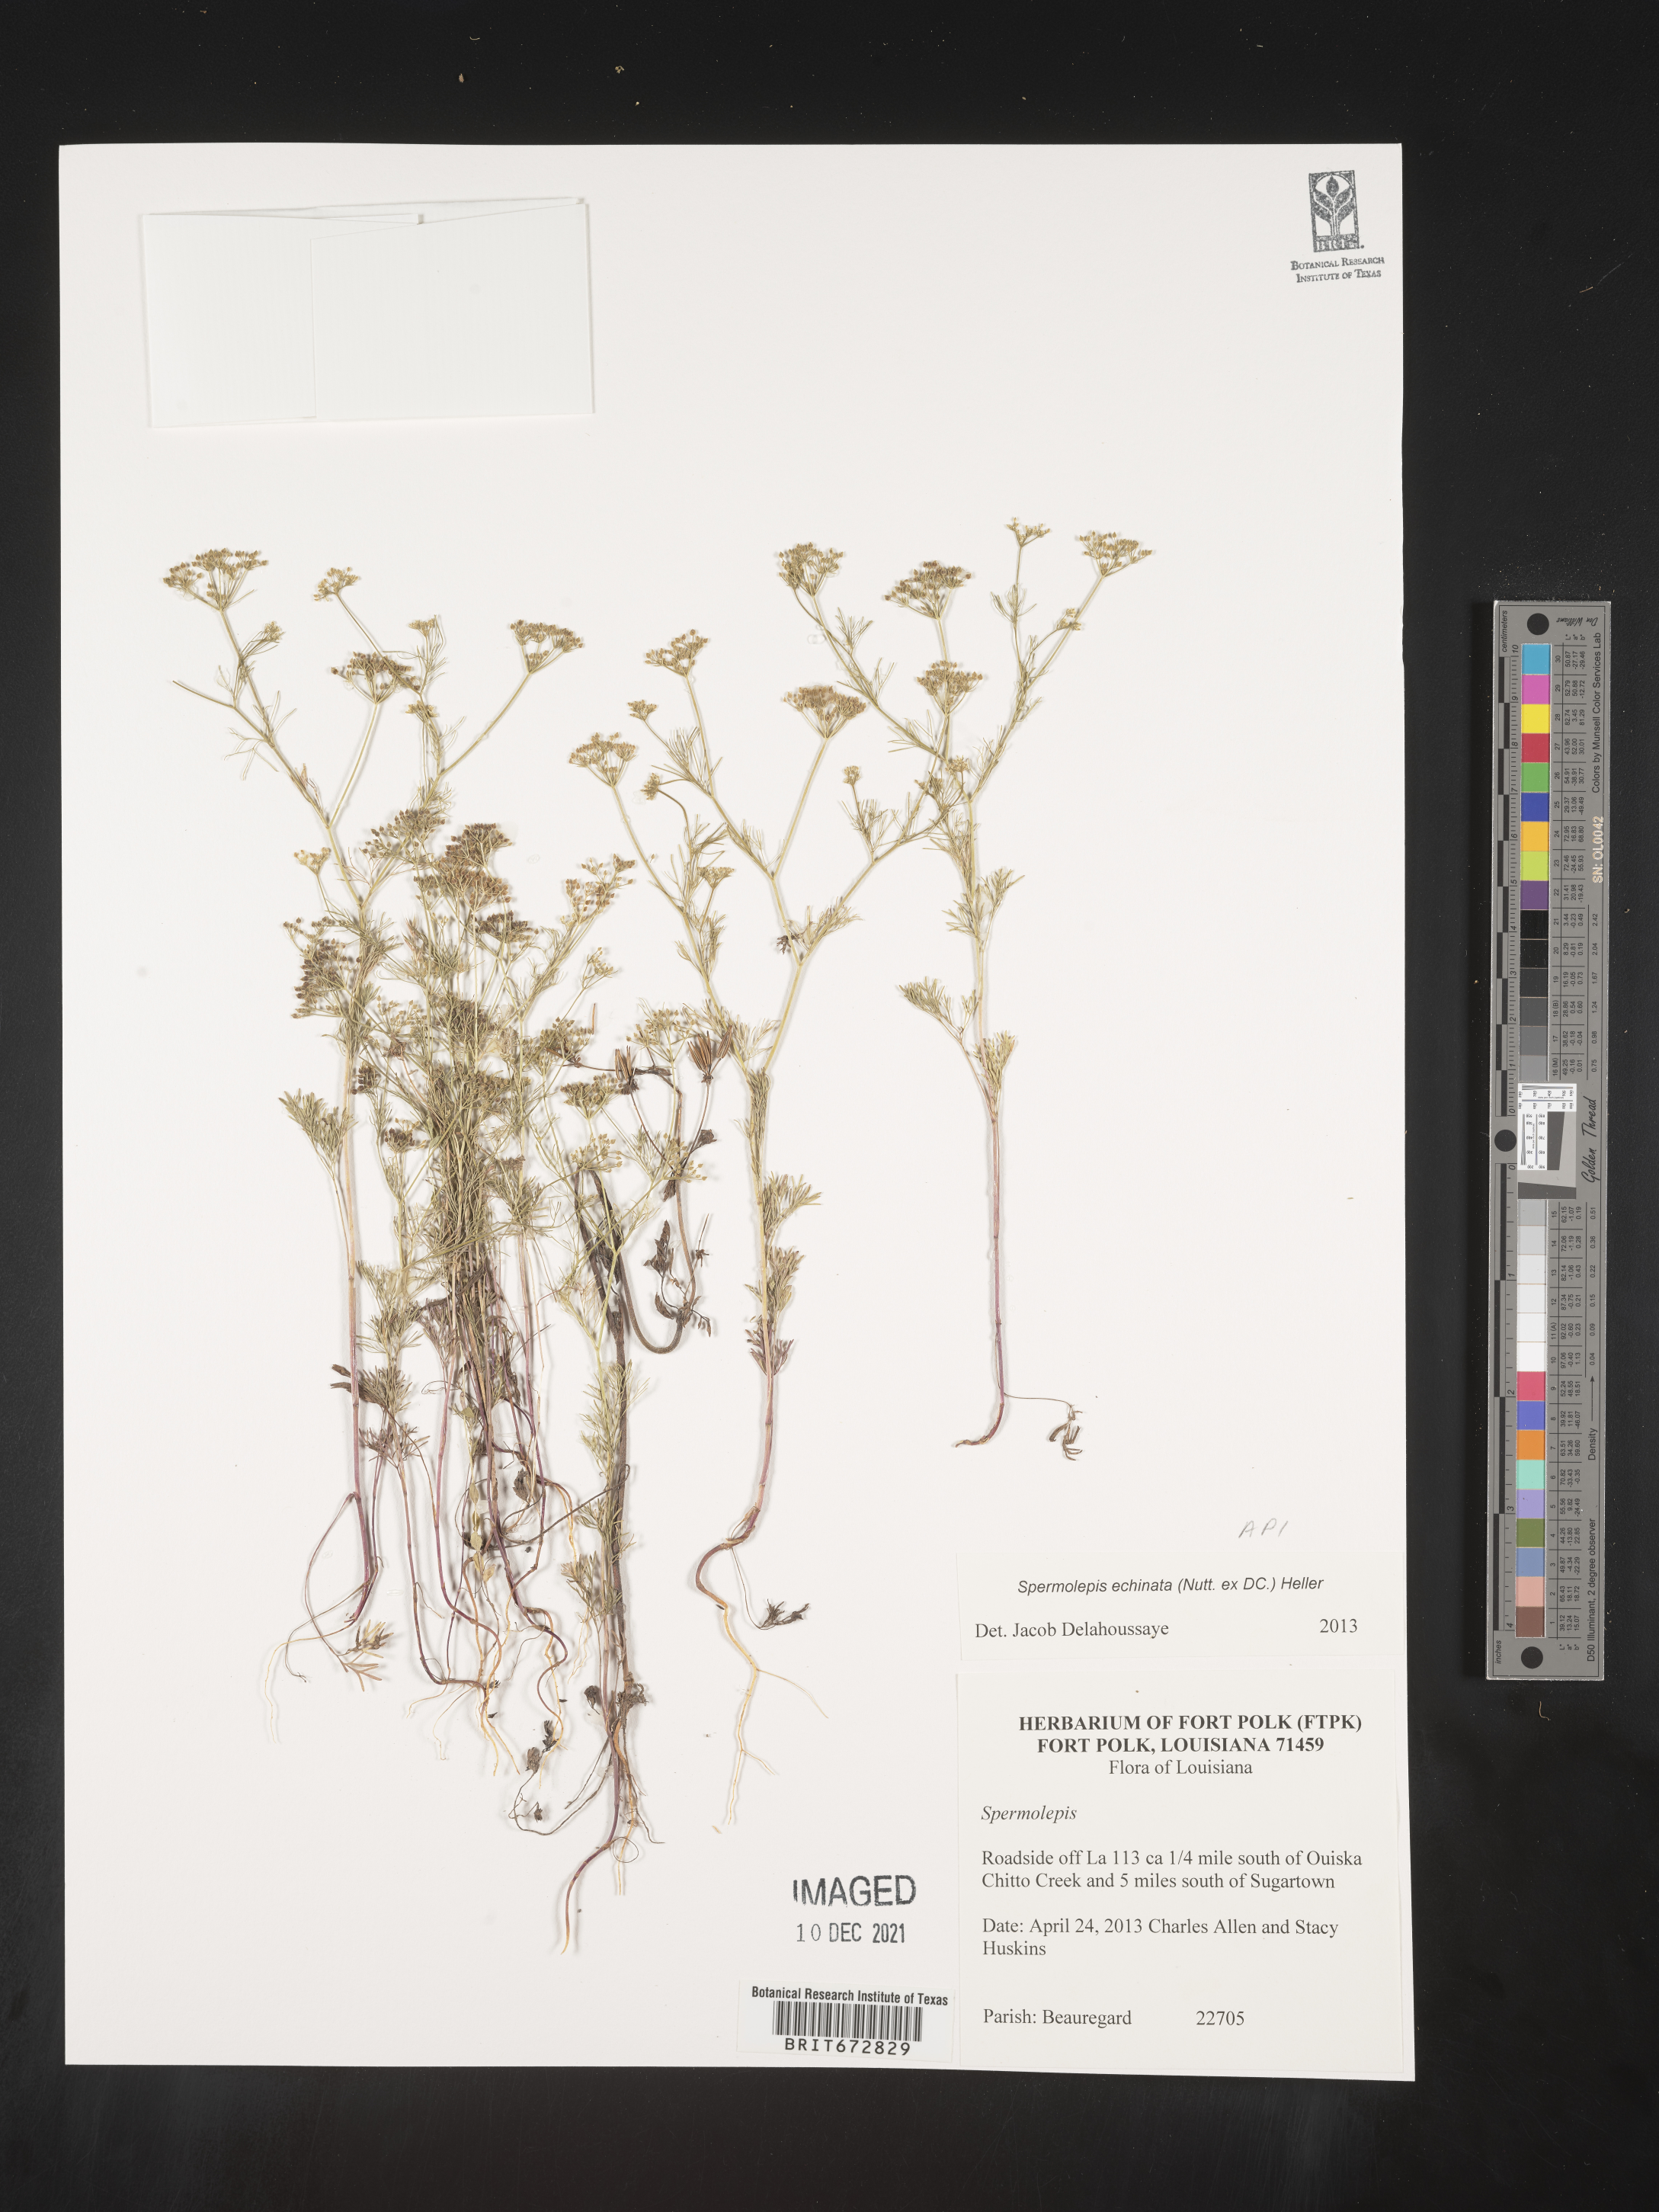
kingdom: Plantae
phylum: Tracheophyta
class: Magnoliopsida
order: Apiales
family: Apiaceae
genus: Spermolepis
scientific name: Spermolepis echinata
